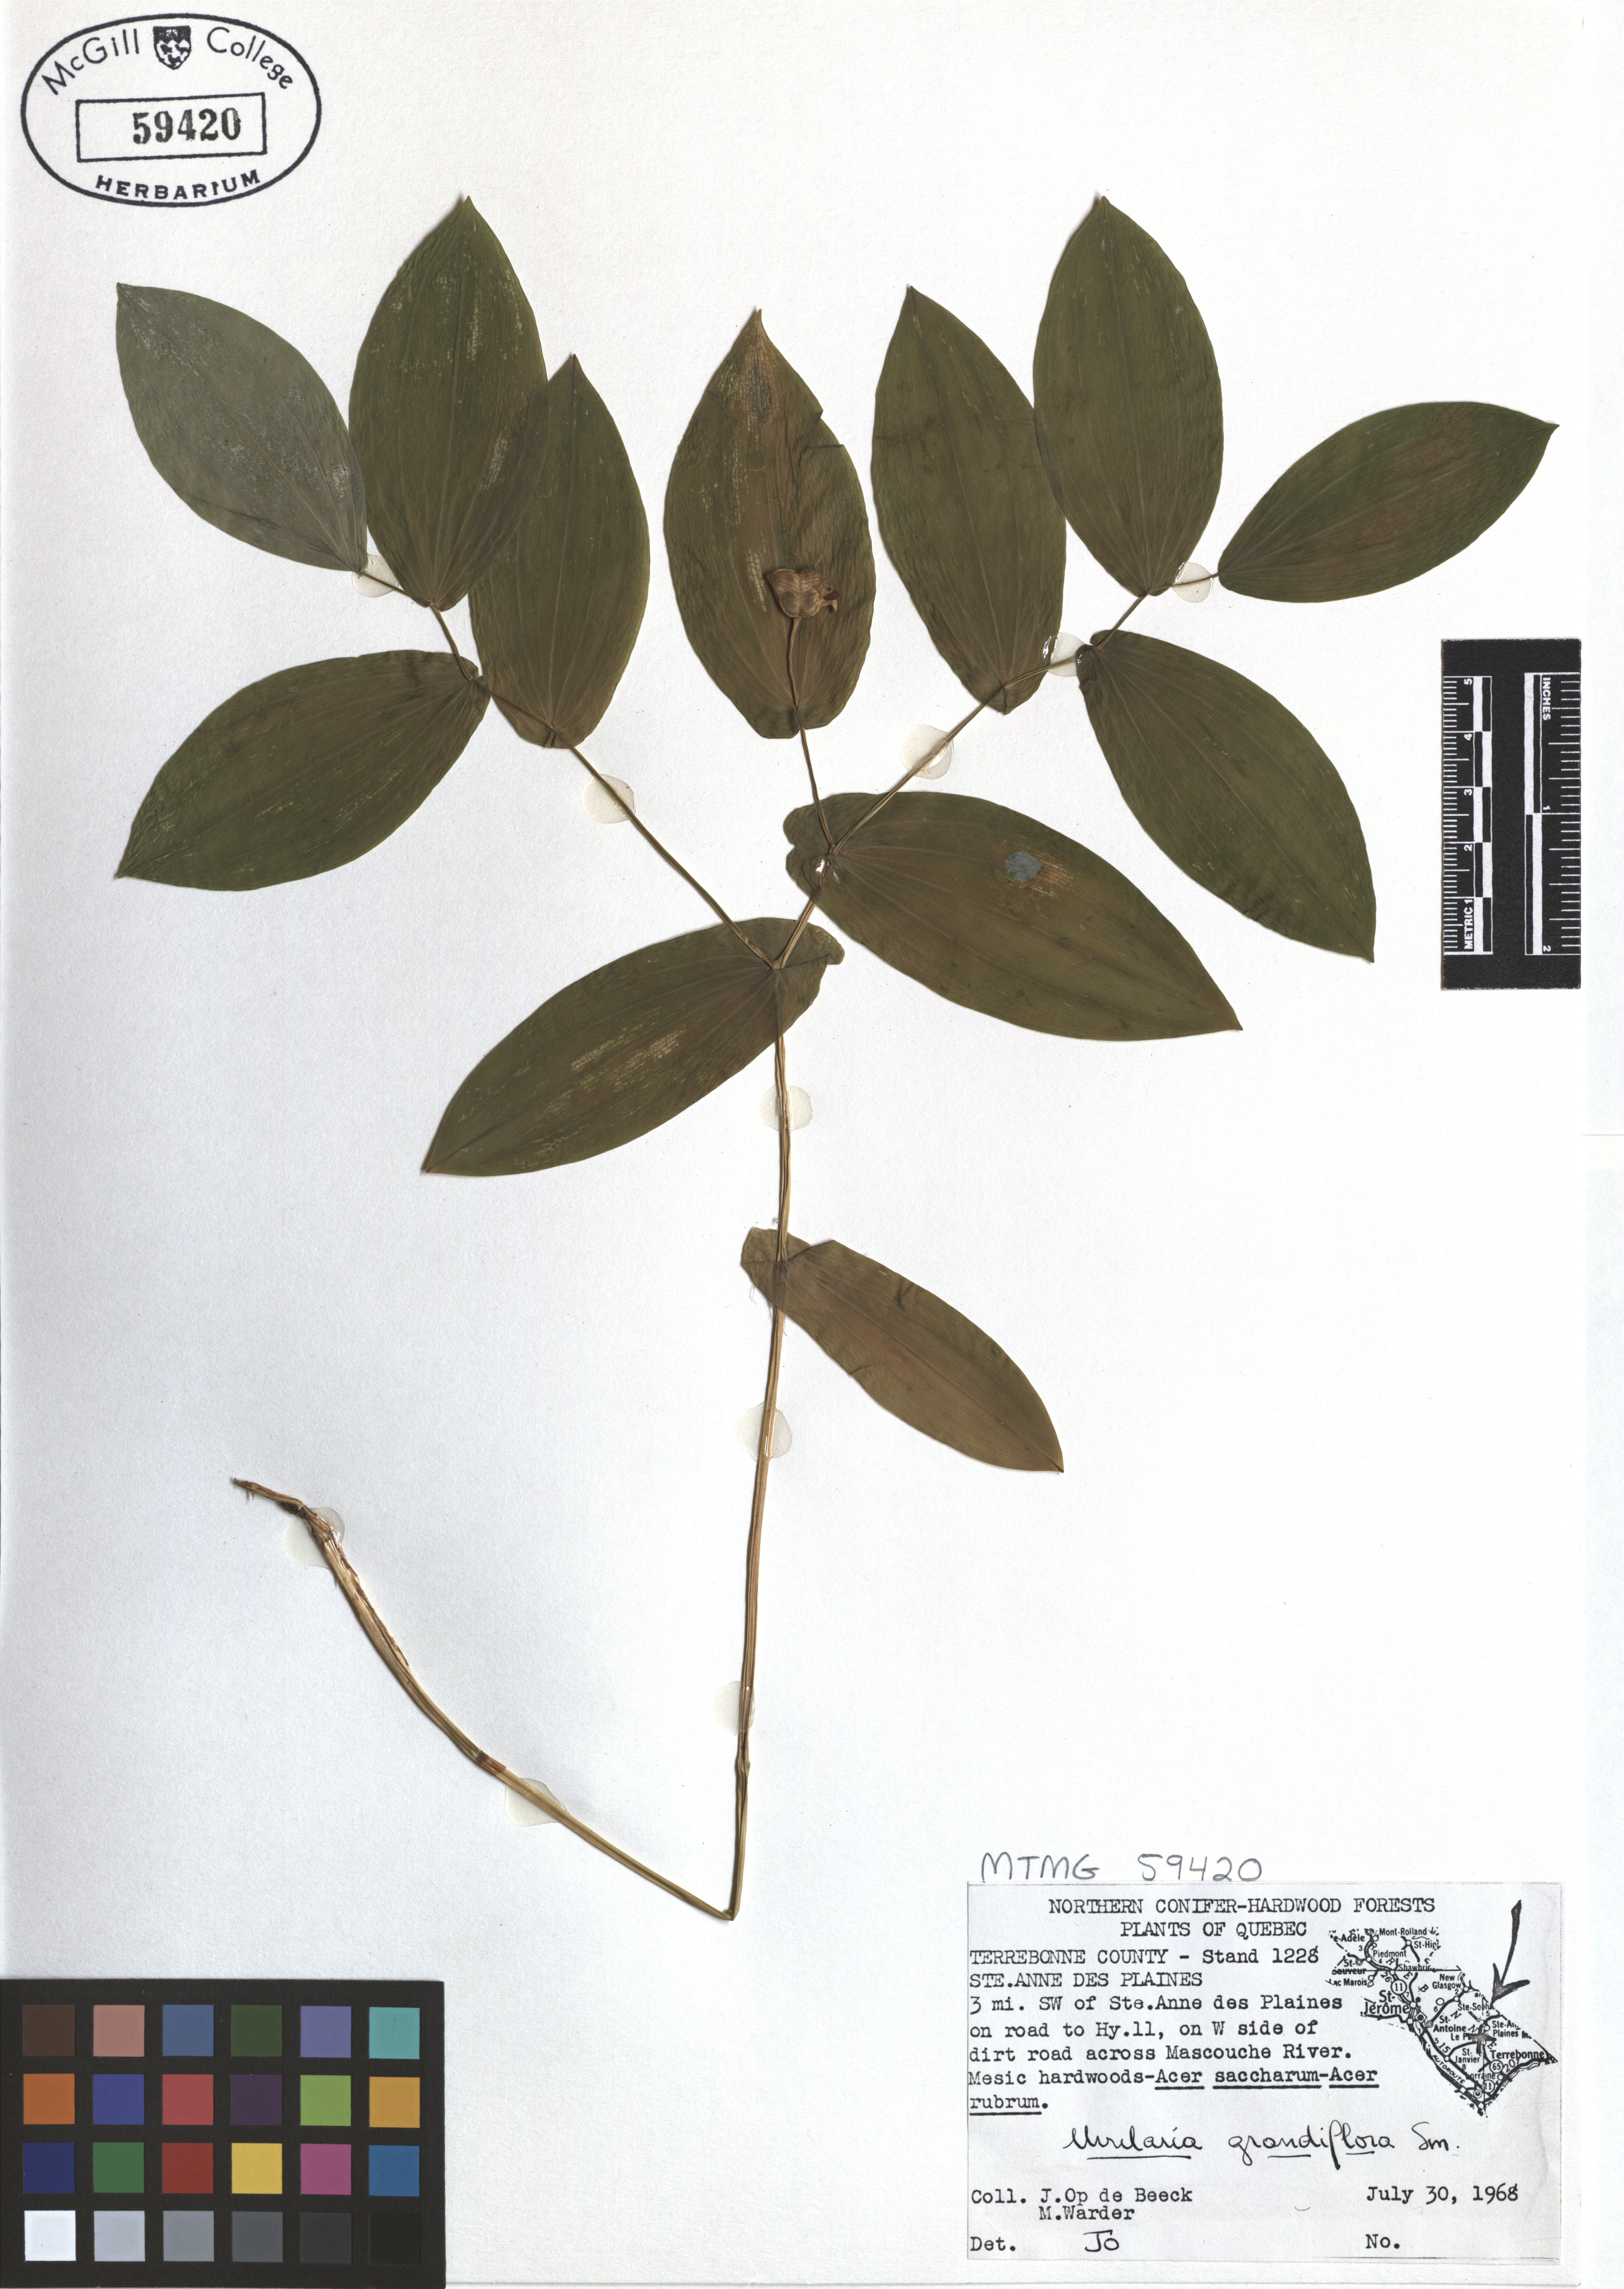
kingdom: Plantae
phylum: Tracheophyta
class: Liliopsida
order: Liliales
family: Colchicaceae
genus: Uvularia
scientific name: Uvularia grandiflora
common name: Bellwort
